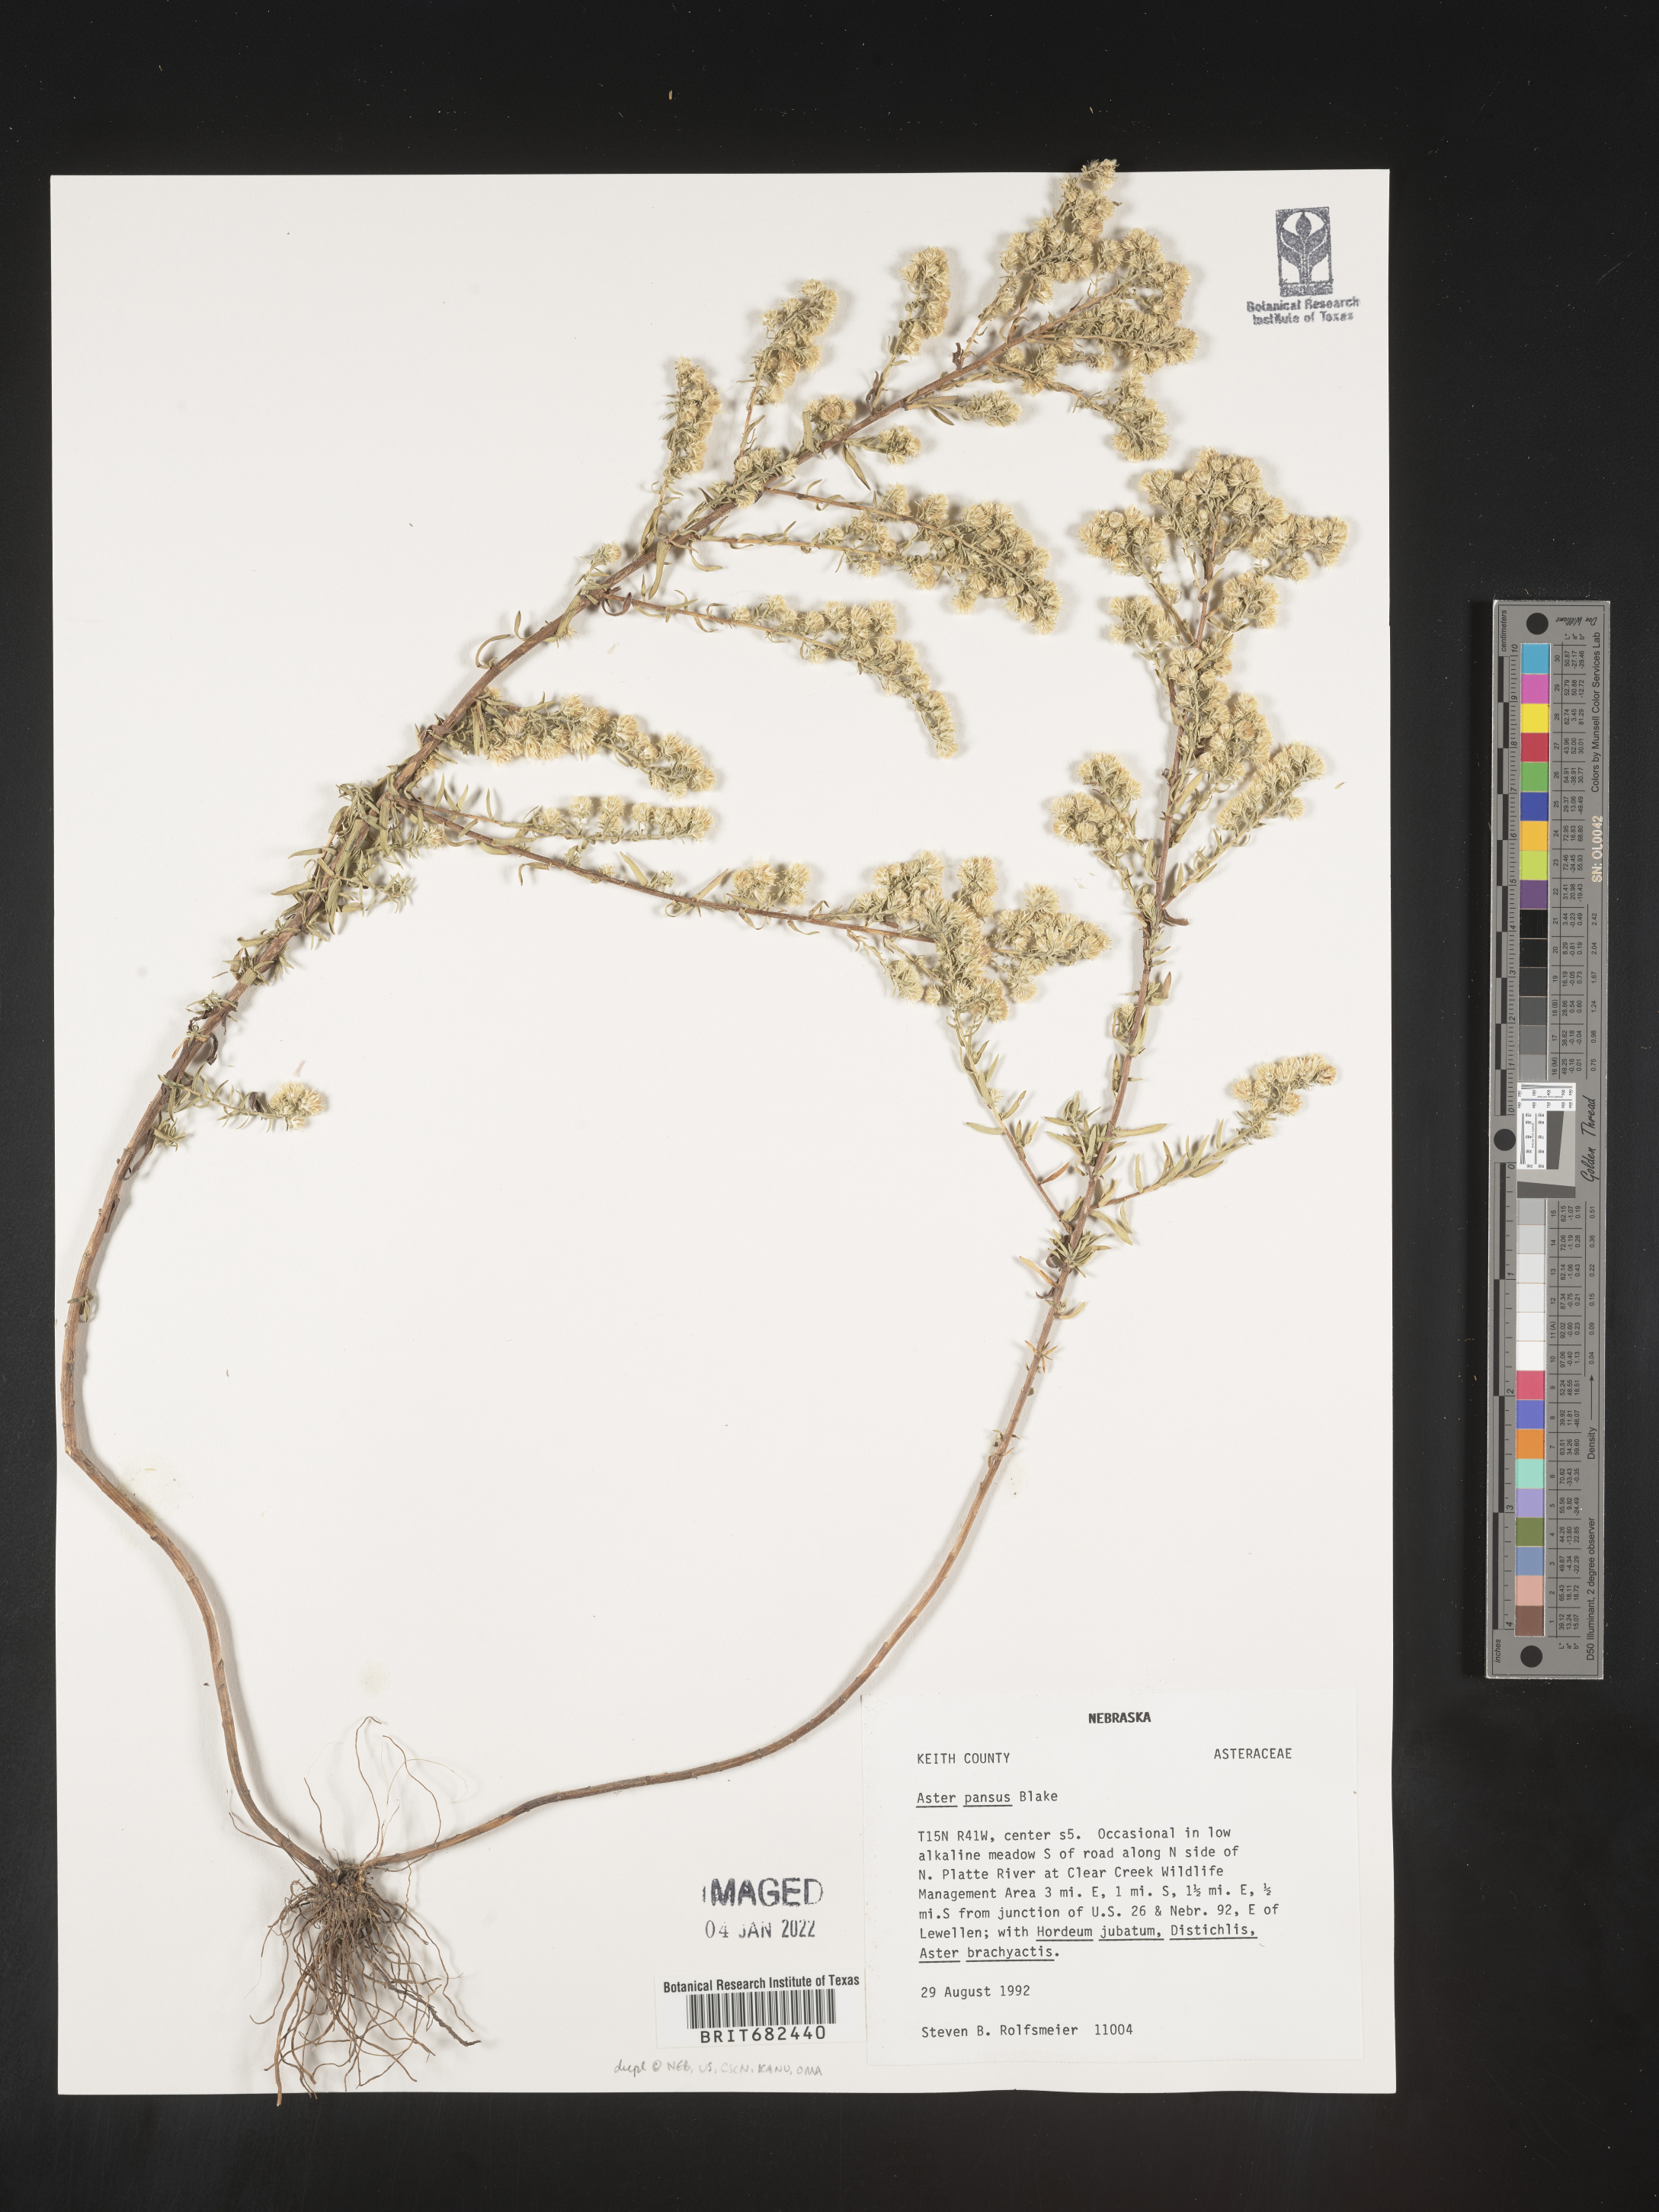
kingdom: Plantae
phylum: Tracheophyta
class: Magnoliopsida
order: Asterales
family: Asteraceae
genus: Aster
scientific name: Aster
